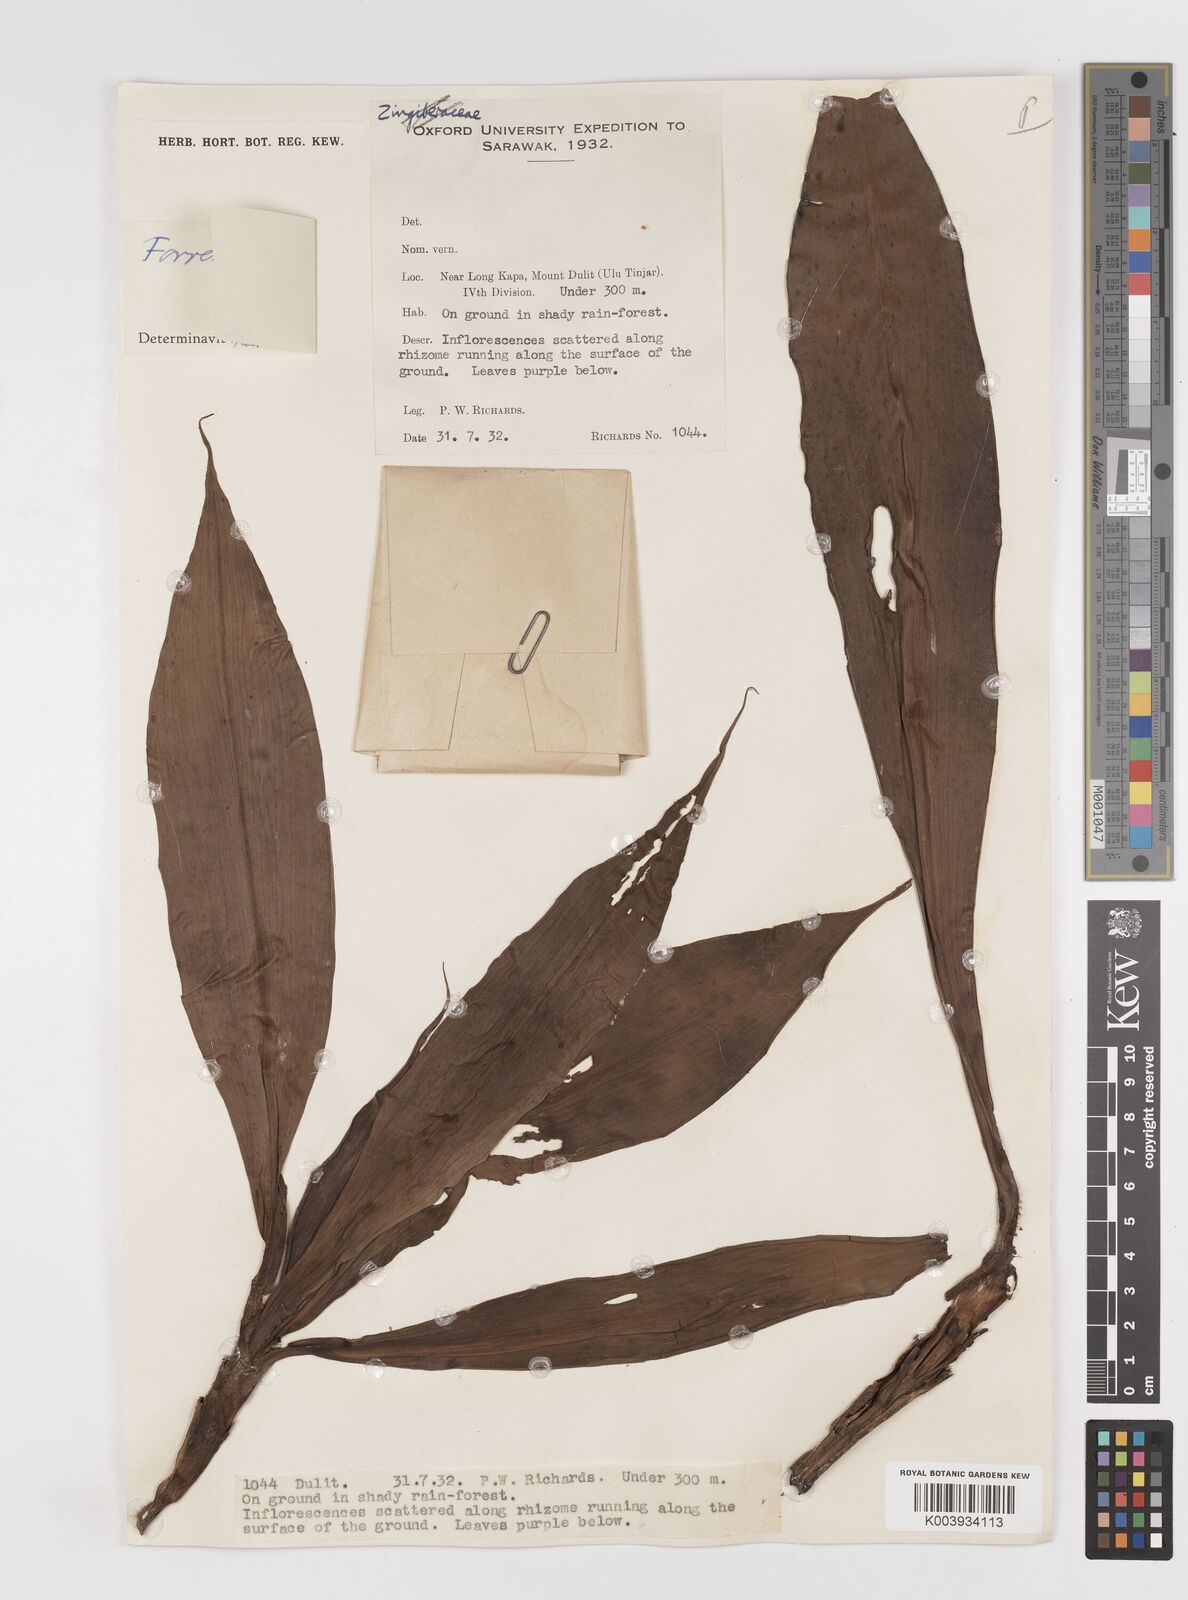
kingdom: Plantae
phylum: Tracheophyta
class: Liliopsida
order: Commelinales
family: Commelinaceae
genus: Amischotolype
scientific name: Amischotolype
